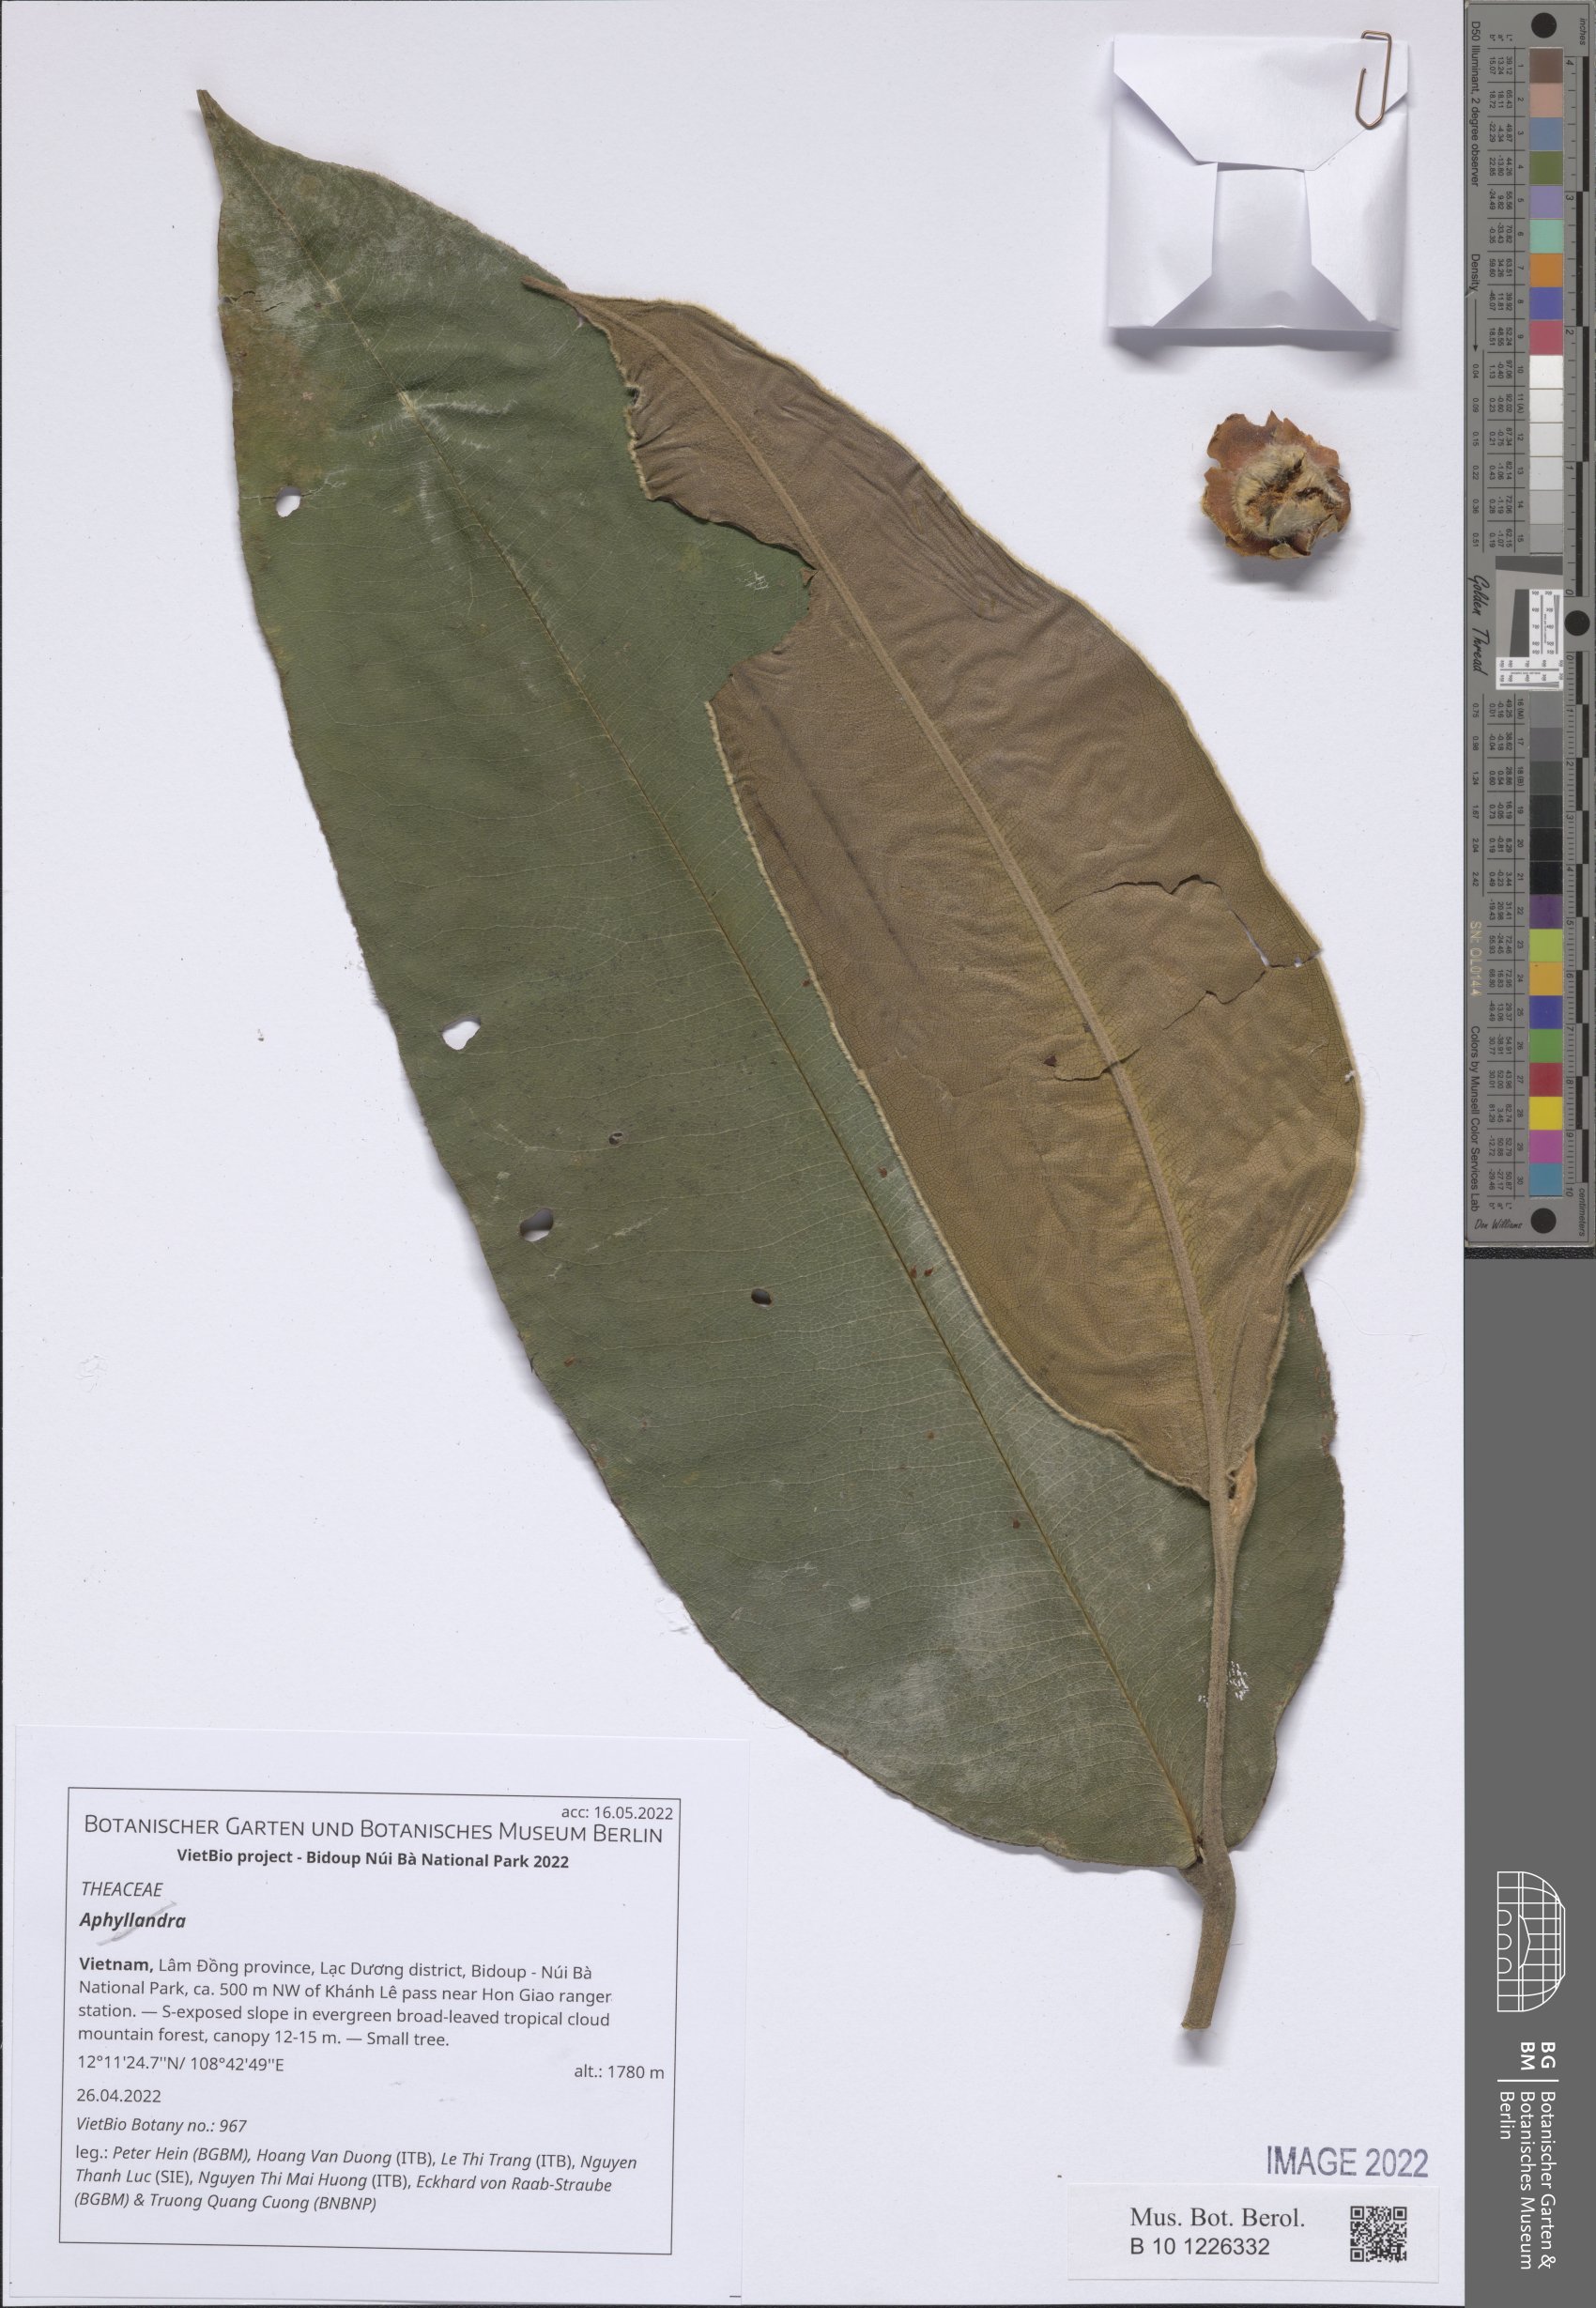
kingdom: Plantae
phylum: Tracheophyta
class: Magnoliopsida
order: Ericales
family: Theaceae
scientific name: Theaceae
